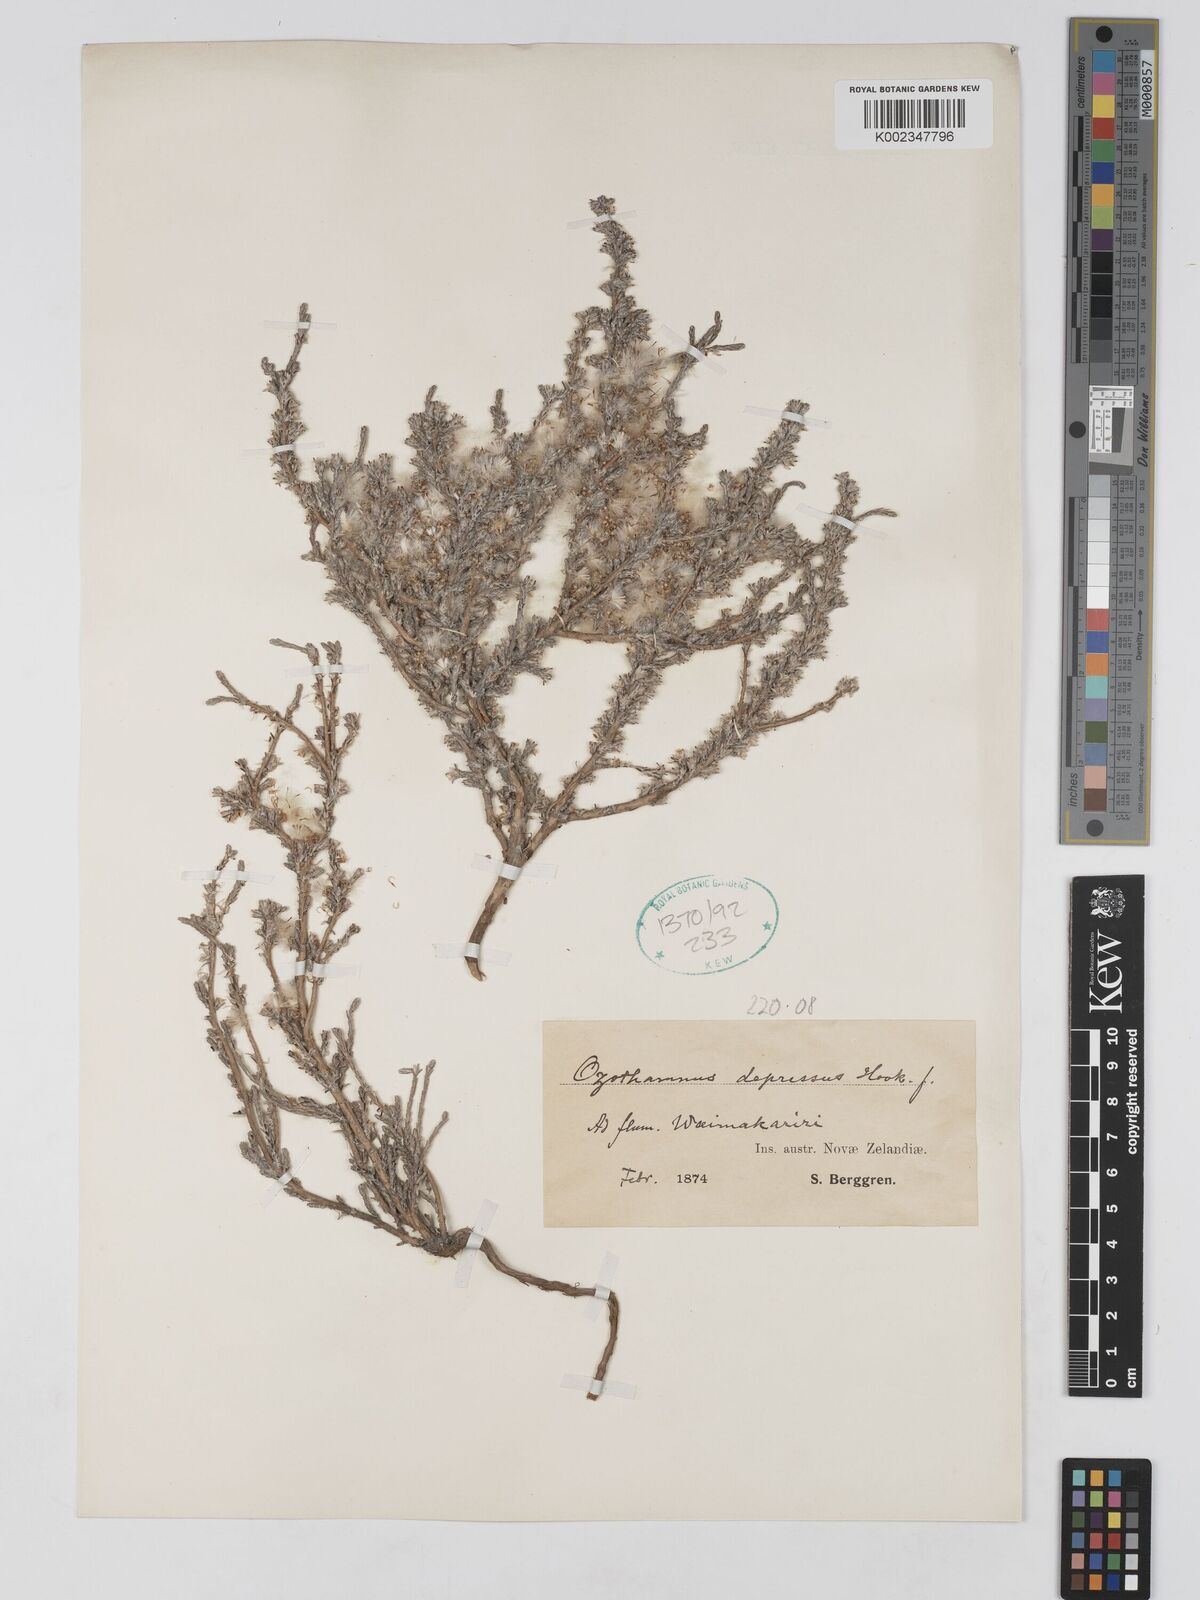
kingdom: Plantae
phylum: Tracheophyta
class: Magnoliopsida
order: Asterales
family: Asteraceae
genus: Ozothamnus
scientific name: Ozothamnus depressus
